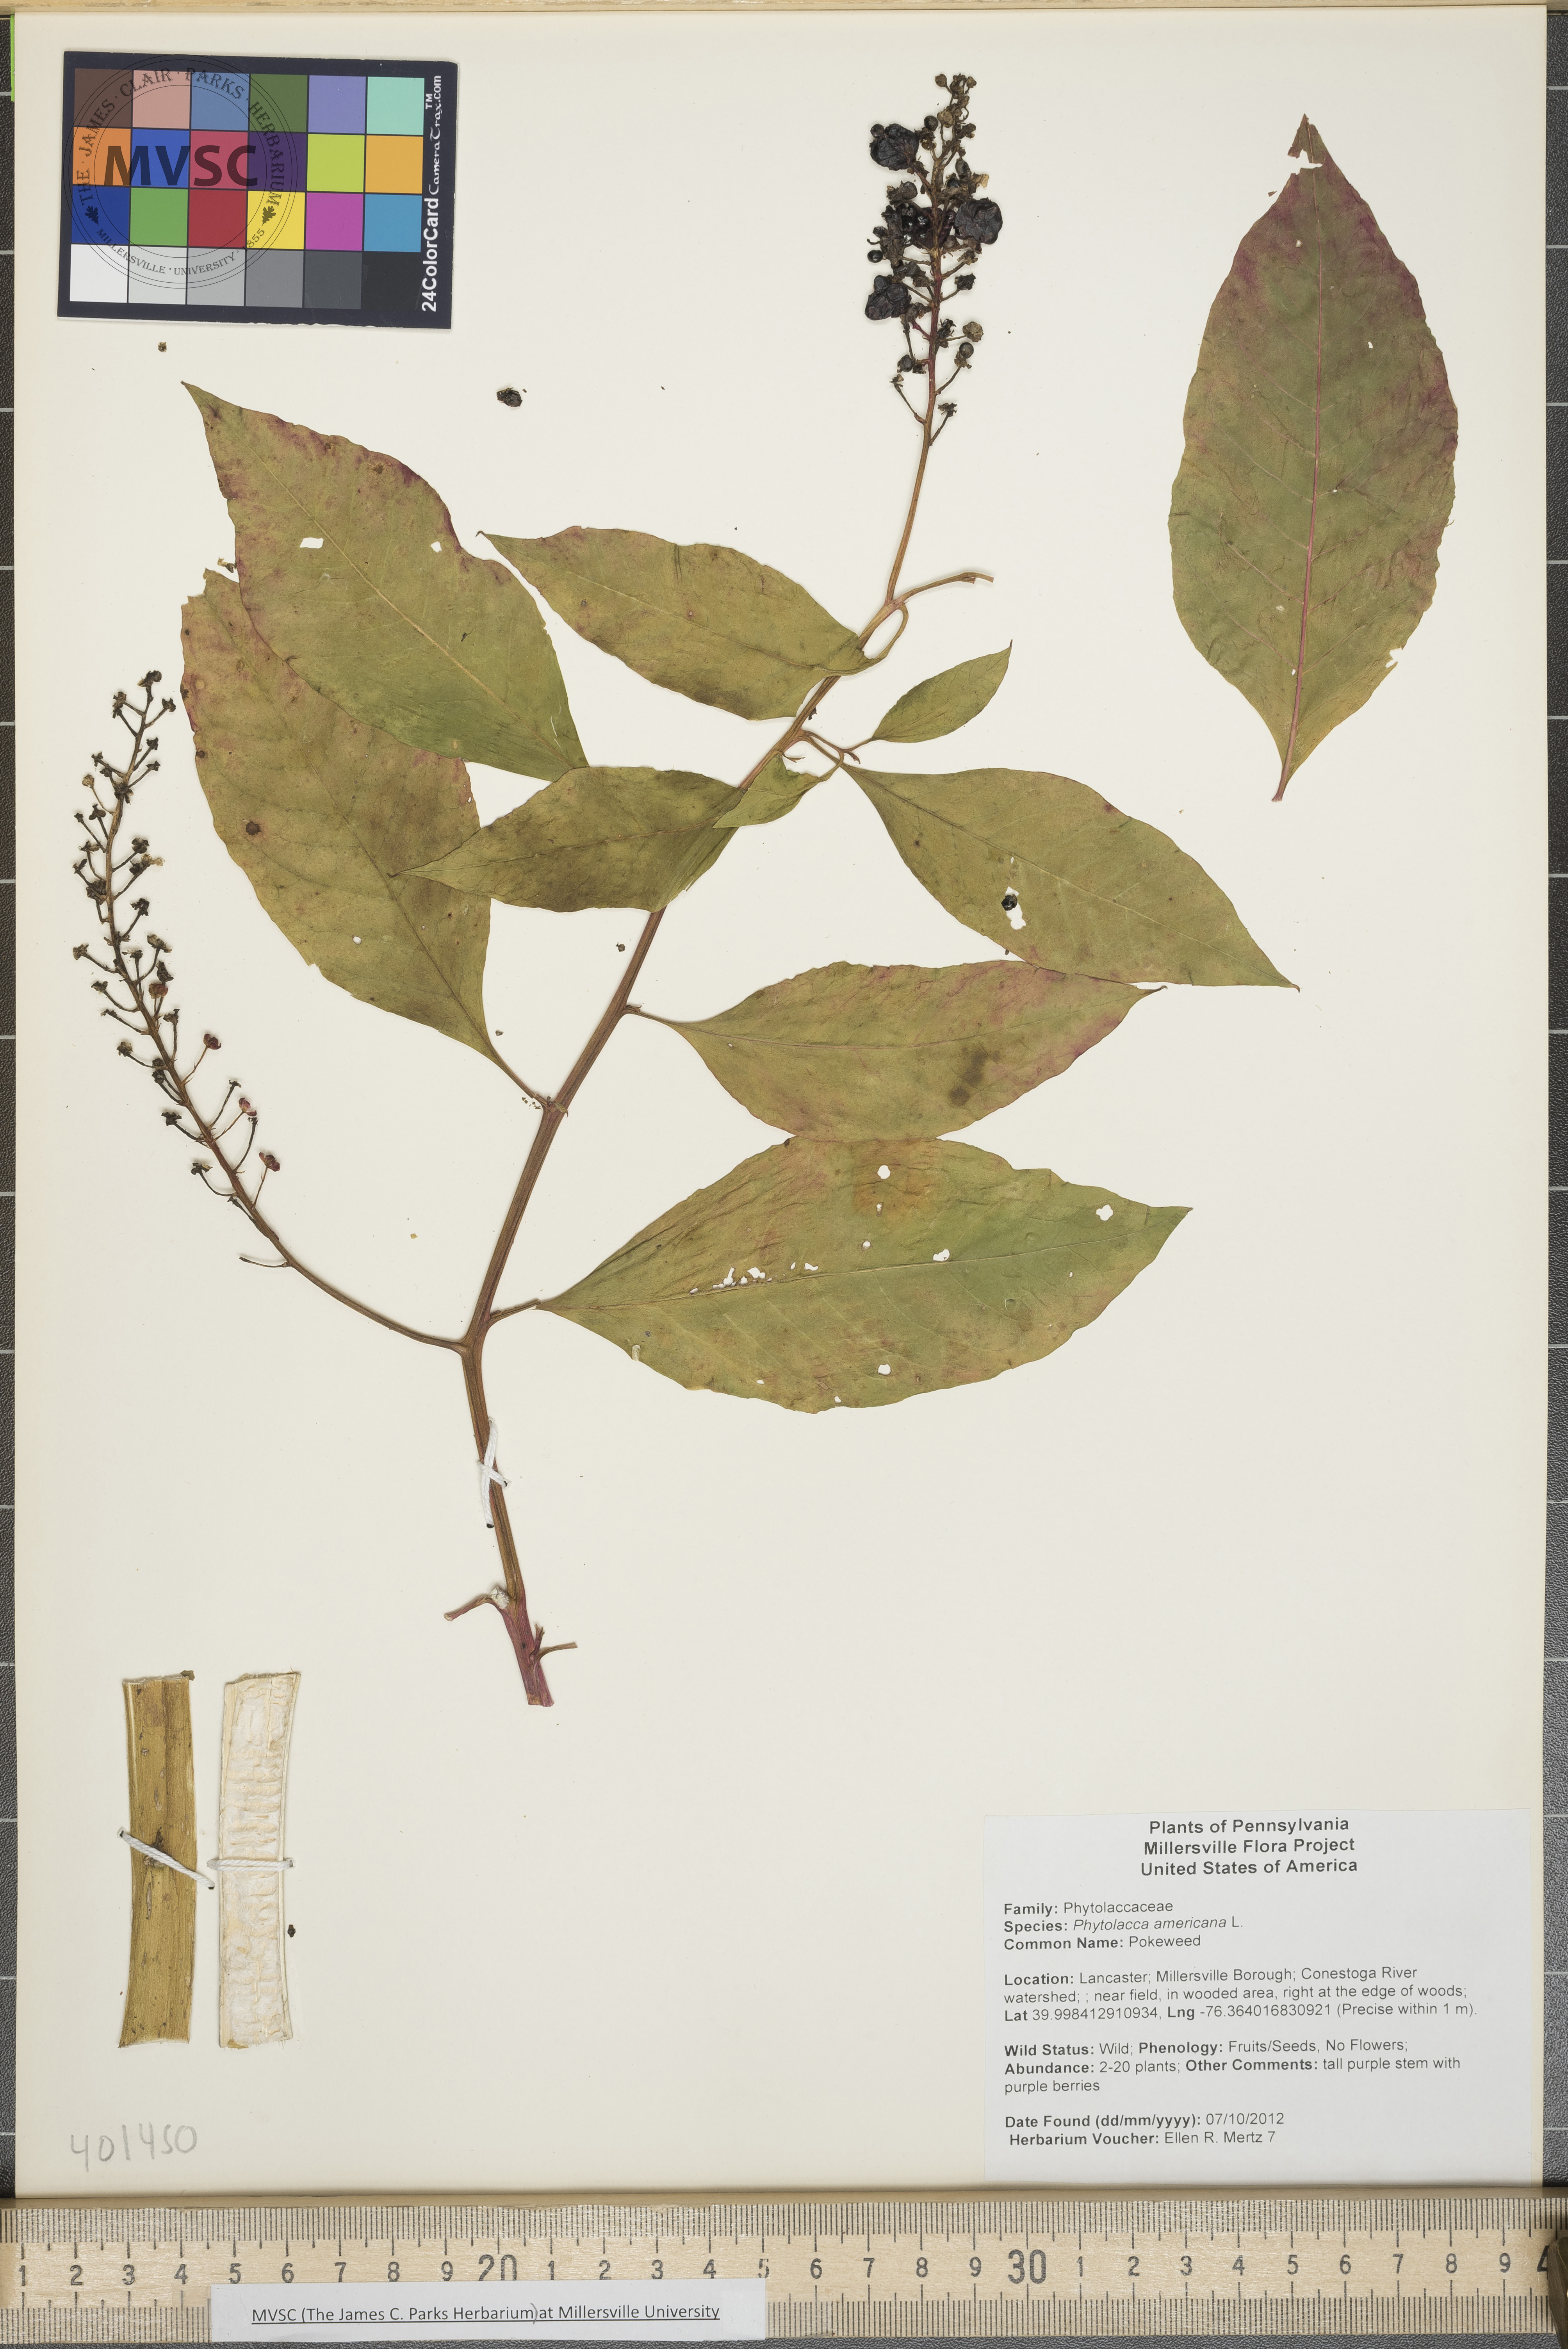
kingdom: Plantae
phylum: Tracheophyta
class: Magnoliopsida
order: Caryophyllales
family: Phytolaccaceae
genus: Phytolacca
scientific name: Phytolacca americana
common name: Pokeweed
